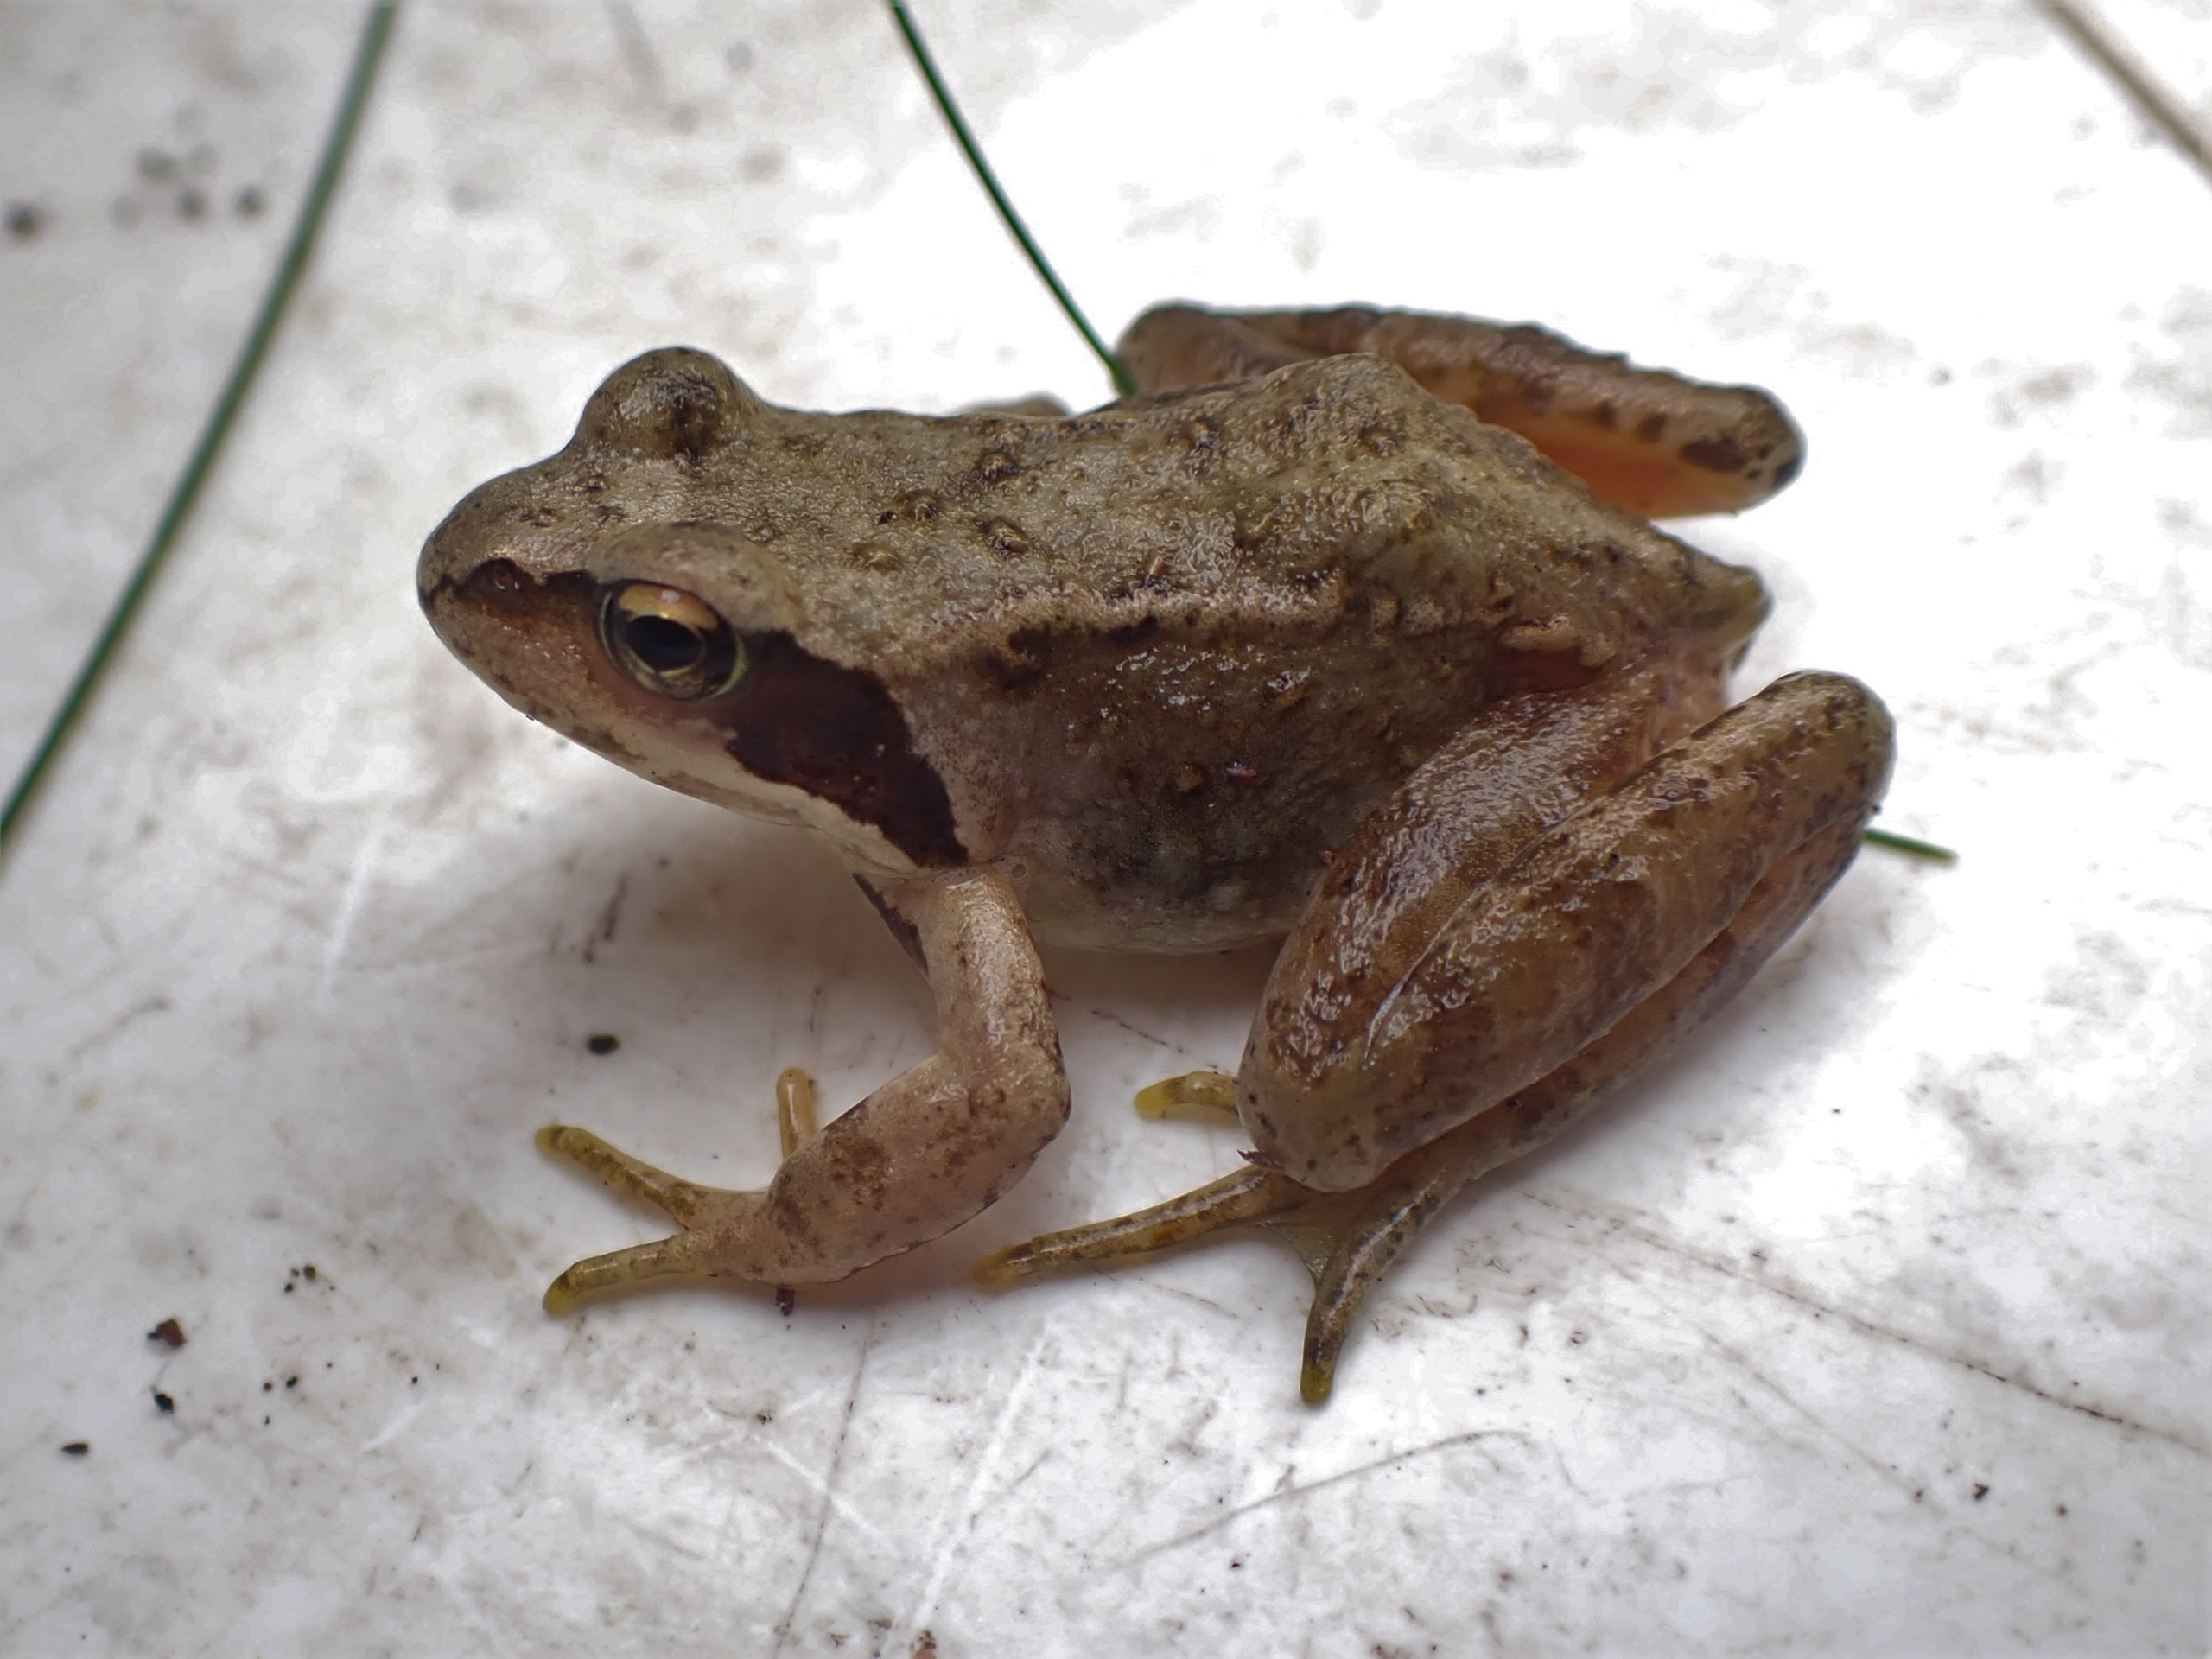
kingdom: Animalia
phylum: Chordata
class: Amphibia
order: Anura
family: Ranidae
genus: Rana
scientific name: Rana temporaria
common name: Butsnudet frø
